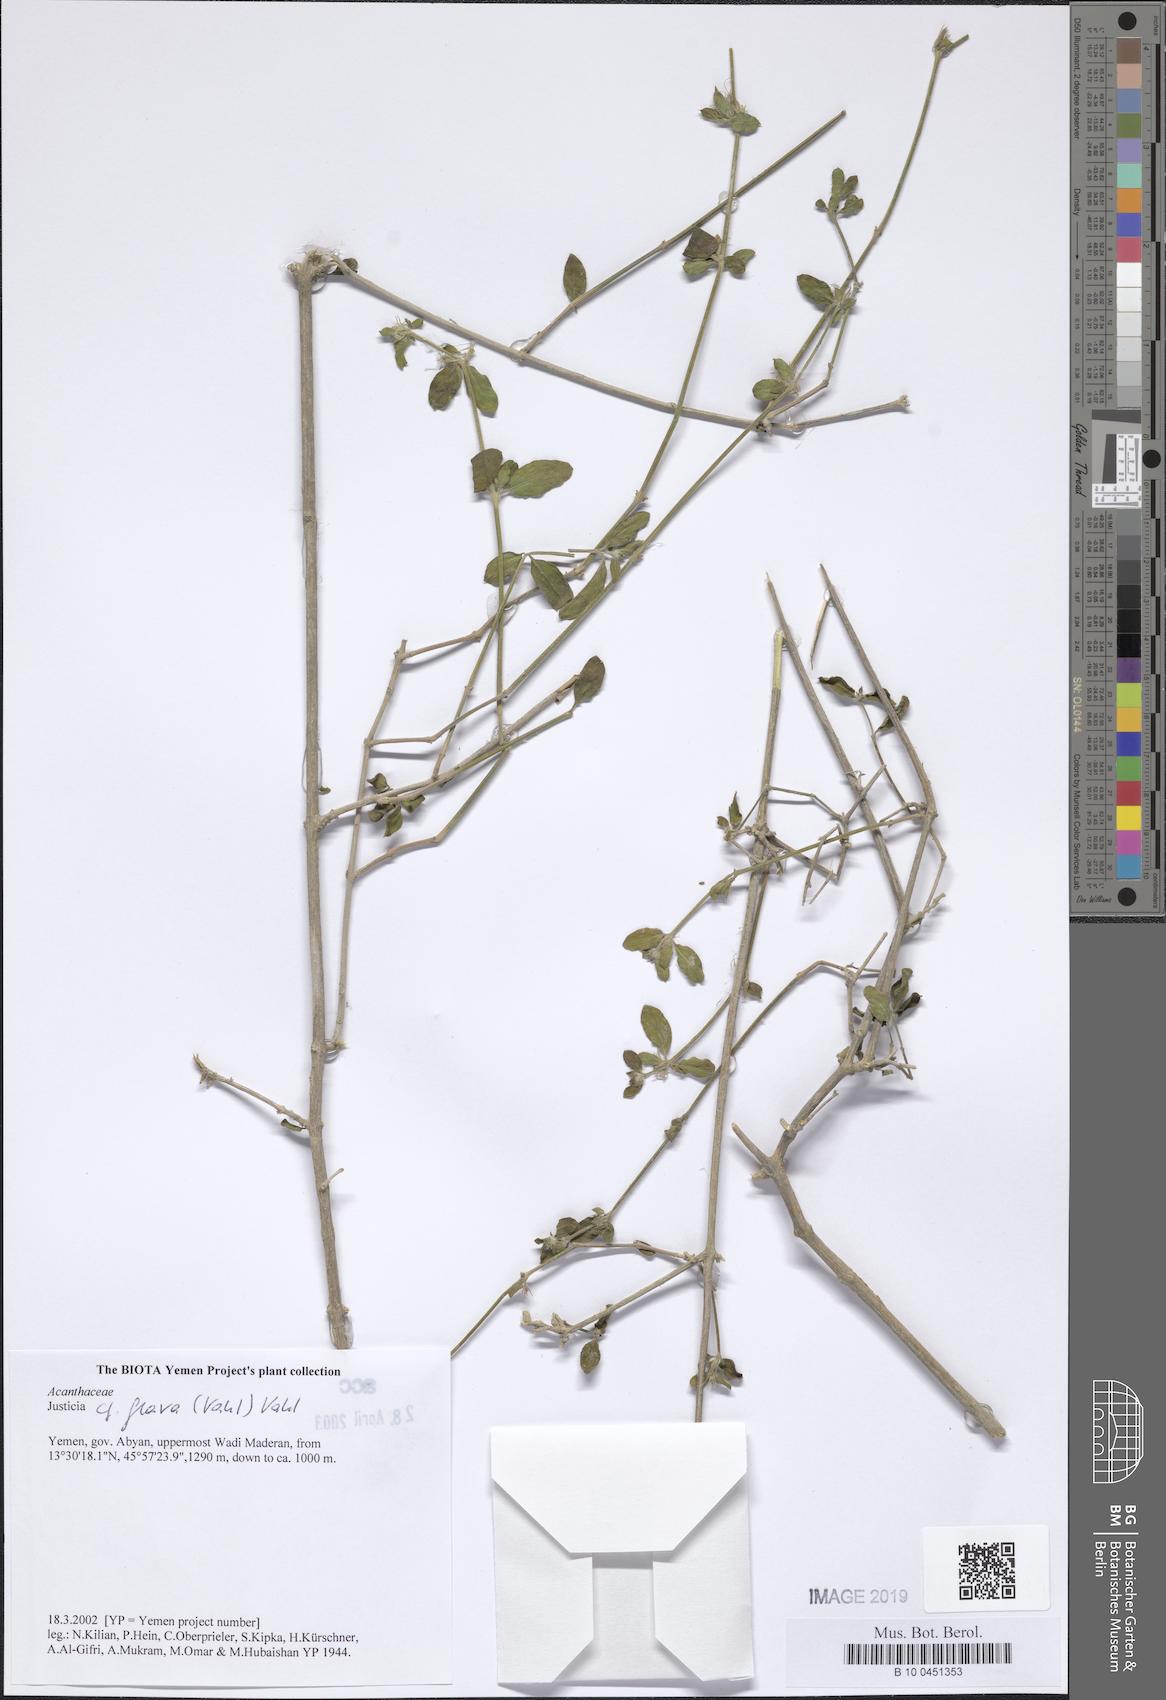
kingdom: Plantae
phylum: Tracheophyta
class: Magnoliopsida
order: Lamiales
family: Acanthaceae
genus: Justicia
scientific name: Justicia flava
